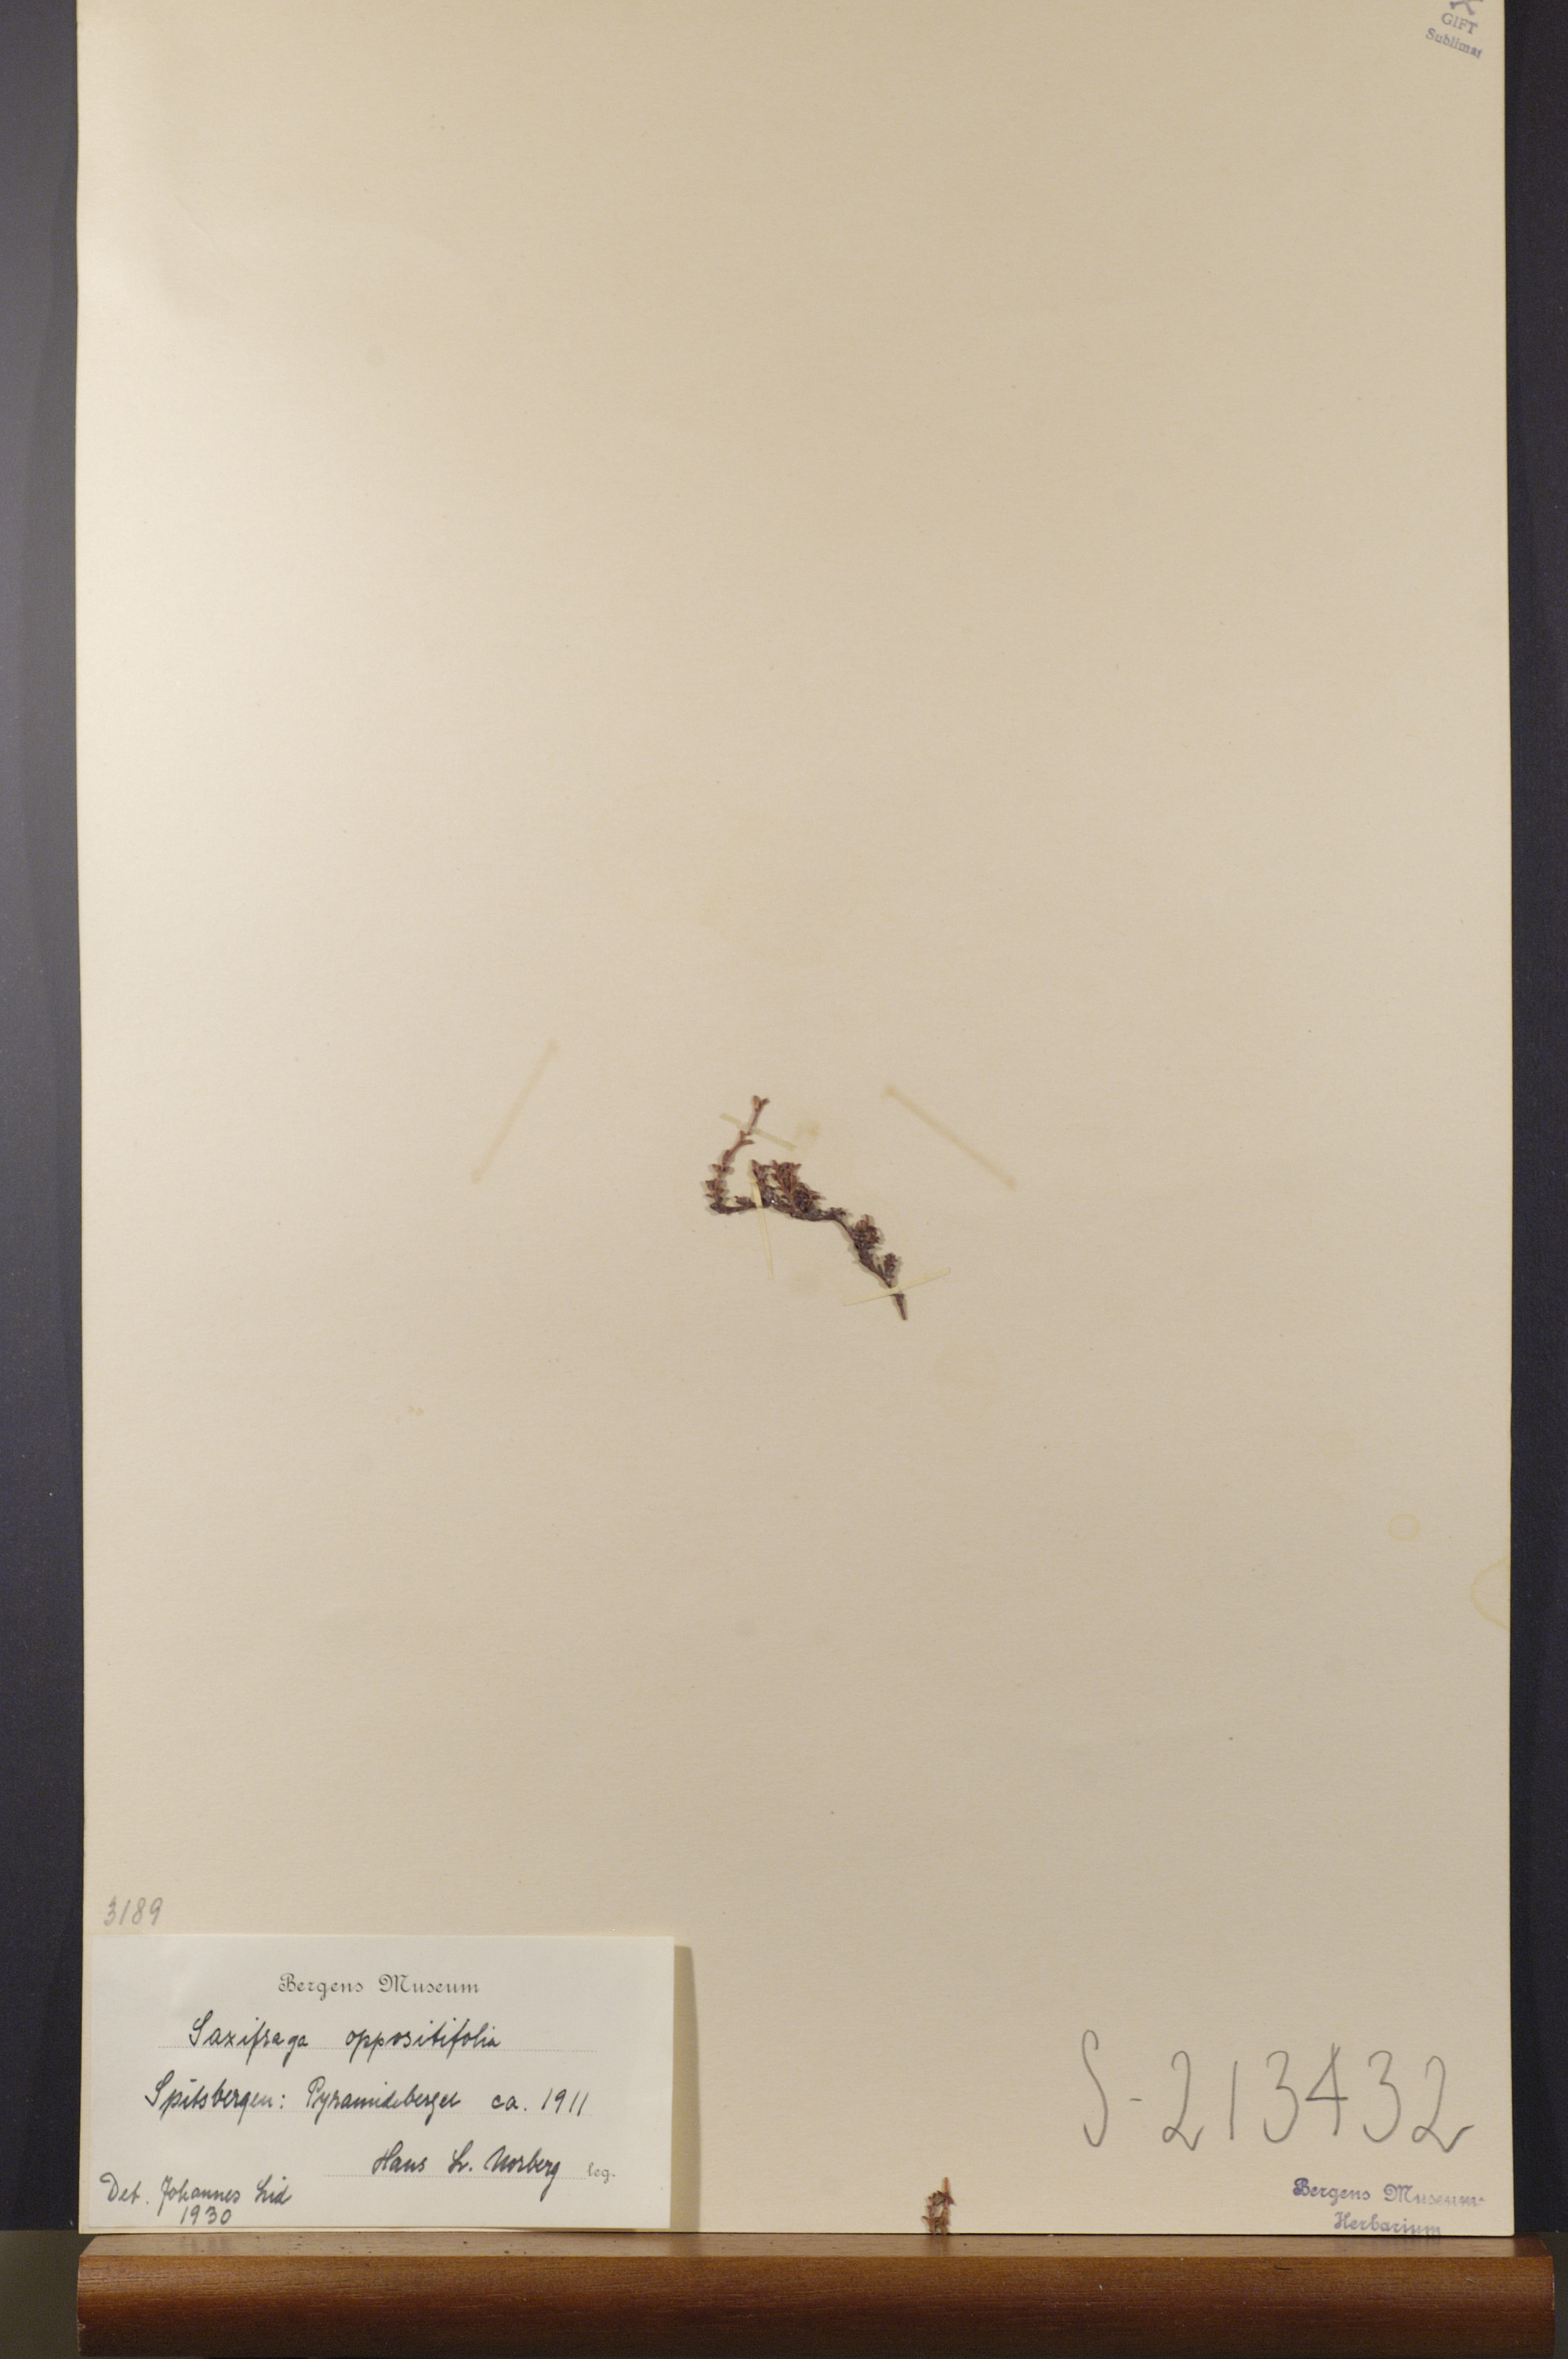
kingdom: Plantae
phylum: Tracheophyta
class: Magnoliopsida
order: Saxifragales
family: Saxifragaceae
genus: Saxifraga
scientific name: Saxifraga oppositifolia
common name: Purple saxifrage
